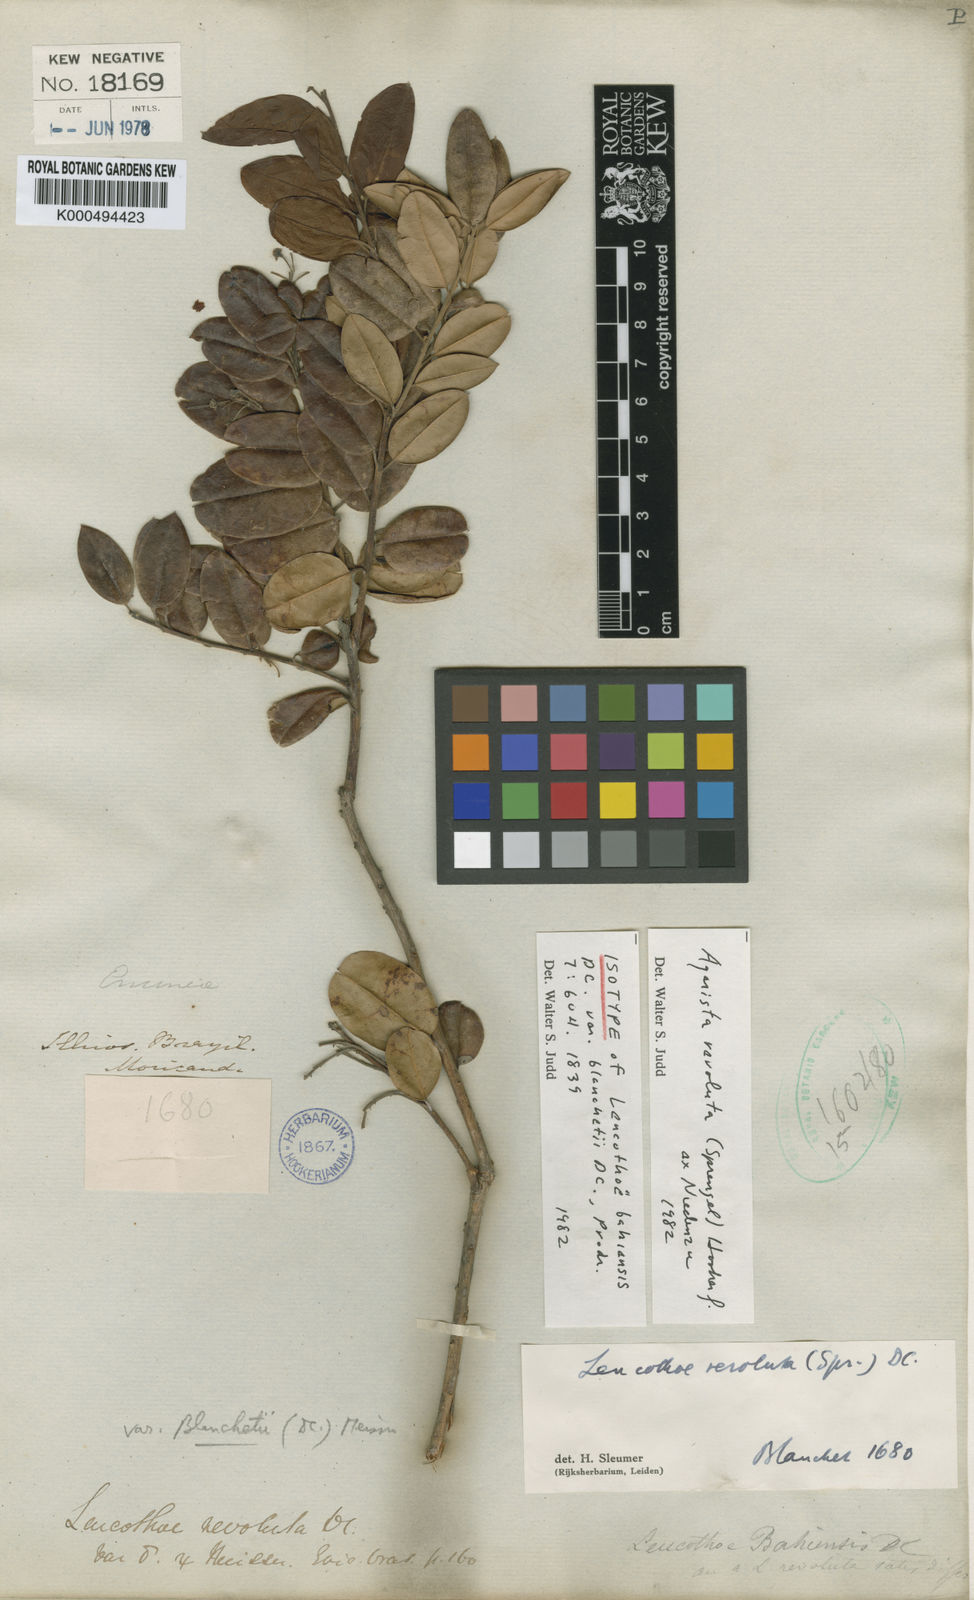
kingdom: Plantae
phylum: Tracheophyta
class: Magnoliopsida
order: Ericales
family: Ericaceae
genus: Agarista
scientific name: Agarista revoluta
